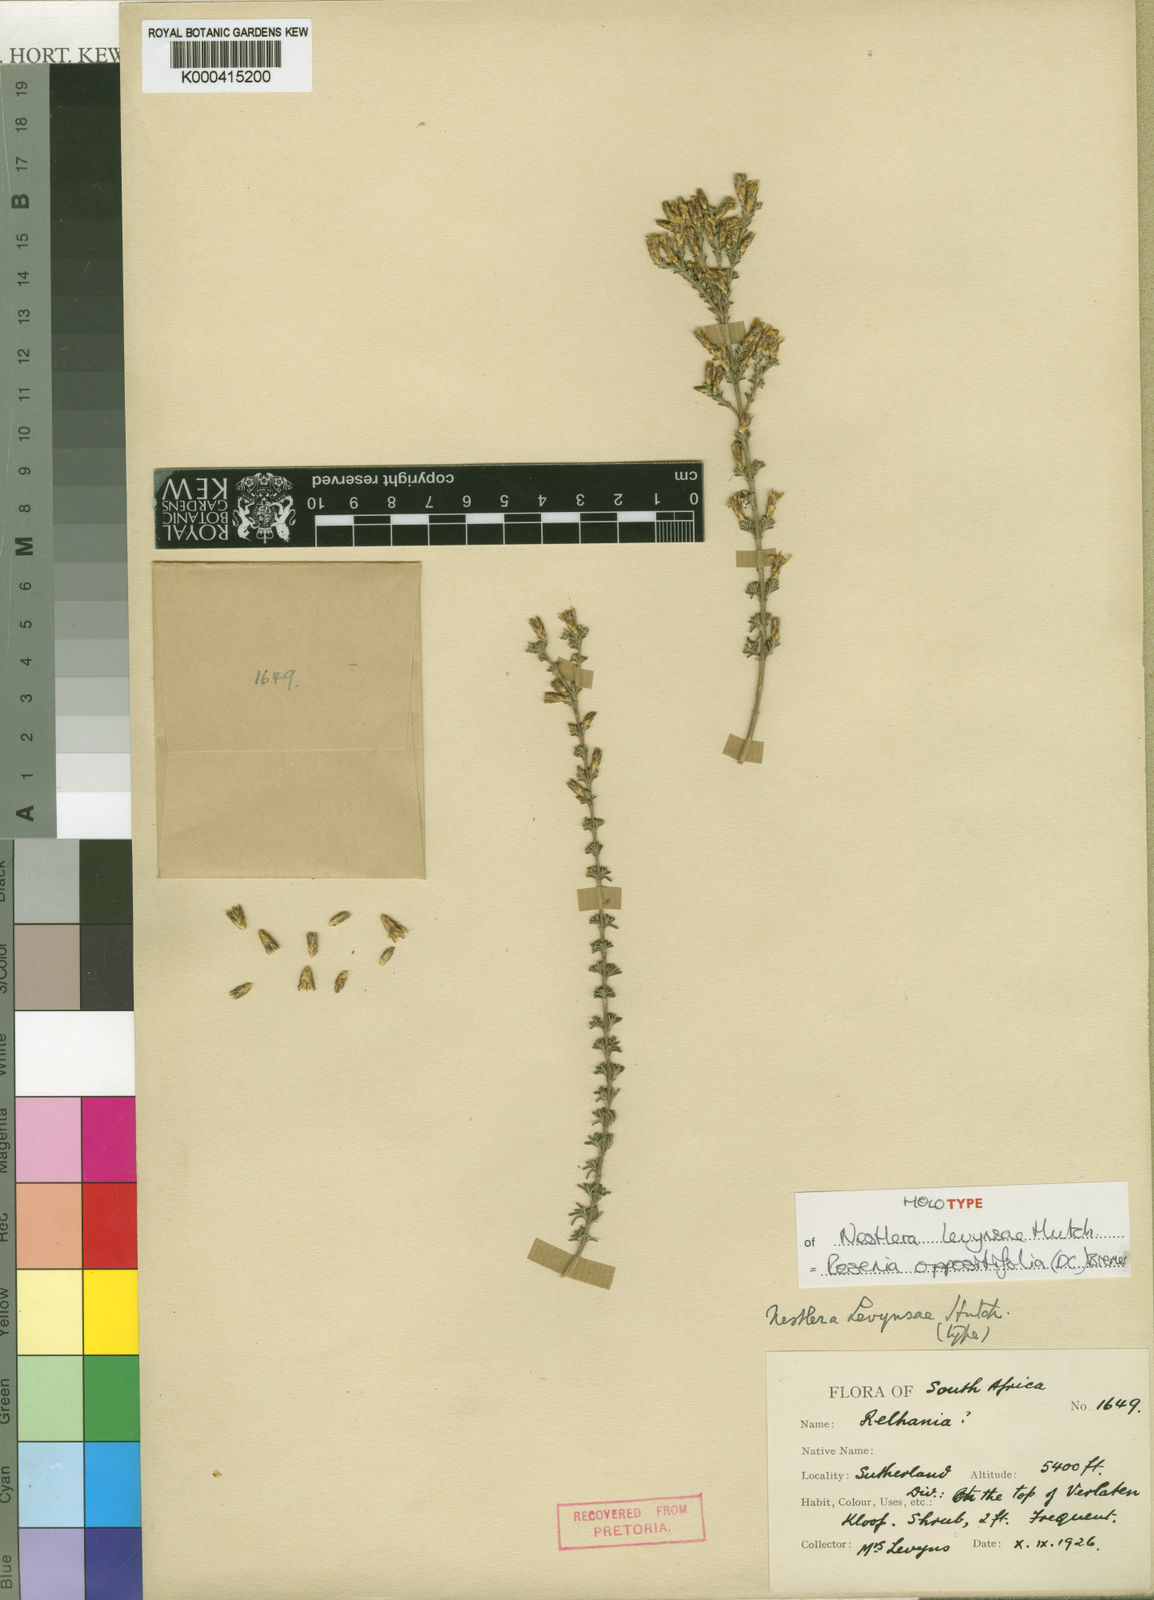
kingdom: Plantae
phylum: Tracheophyta
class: Magnoliopsida
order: Asterales
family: Asteraceae
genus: Oedera
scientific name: Oedera oppositifolia
